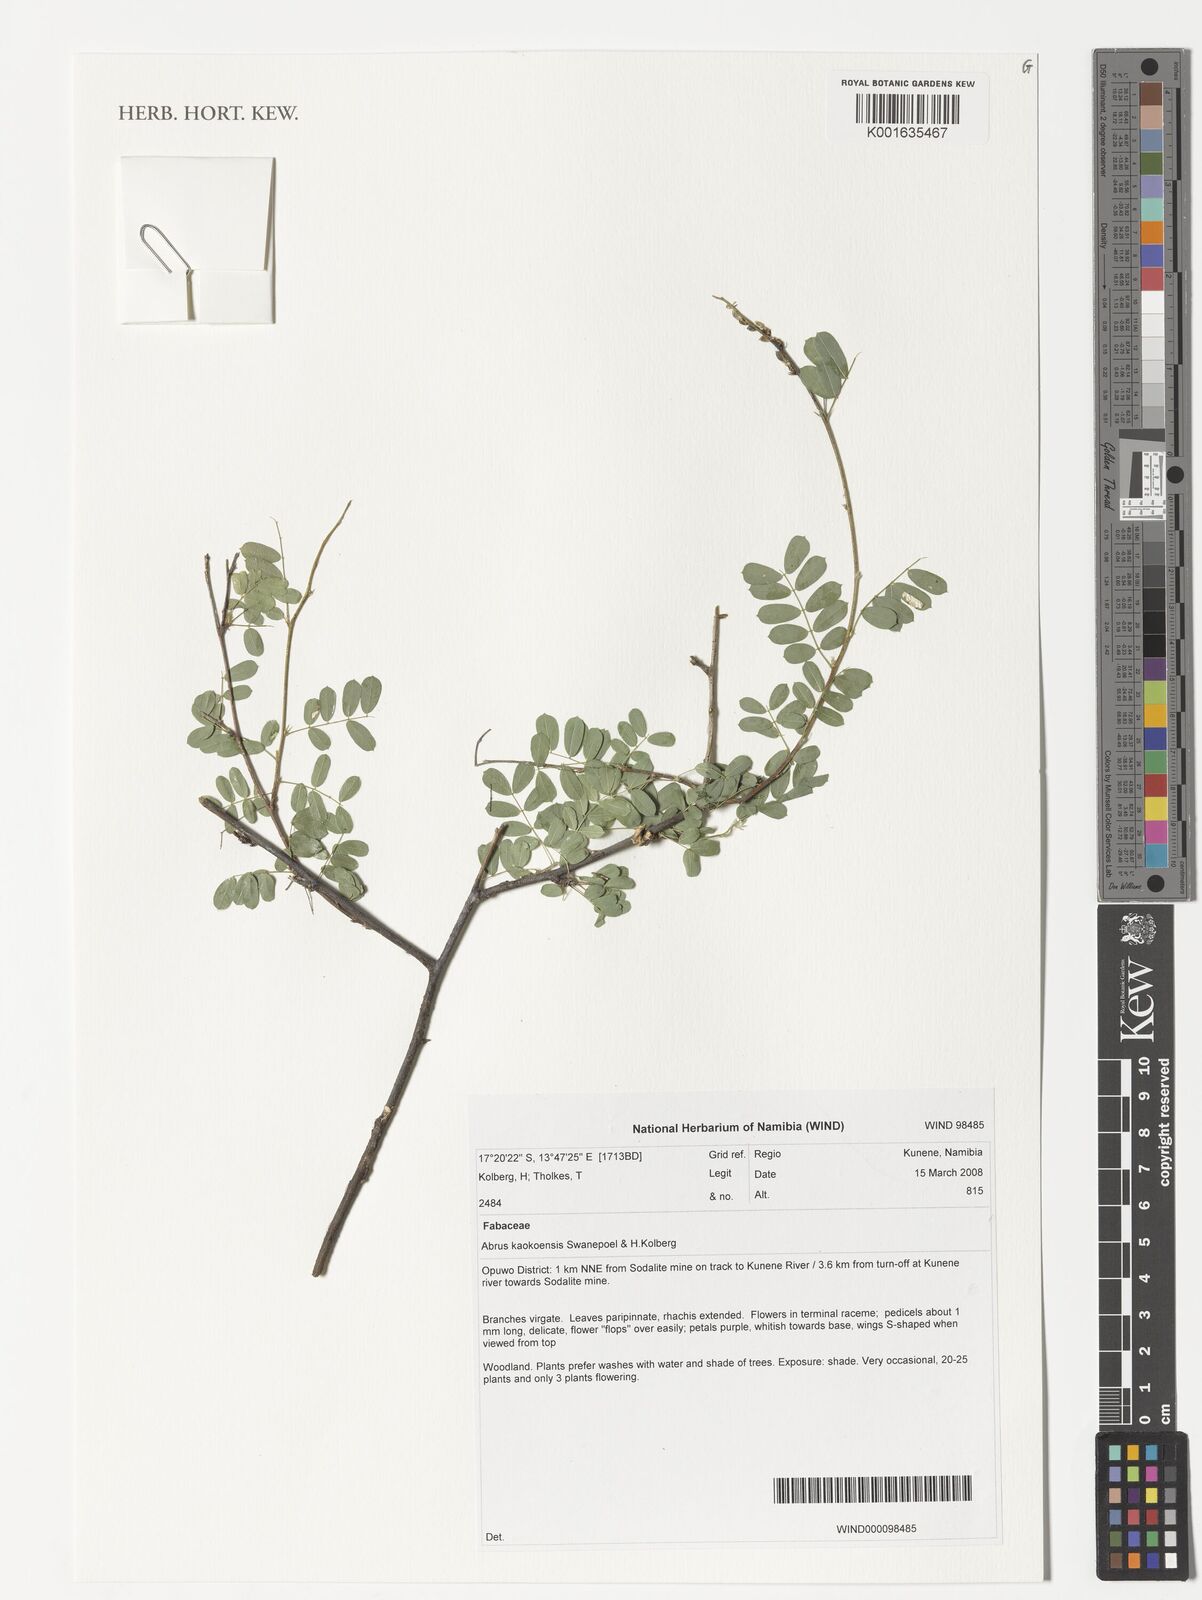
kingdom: Plantae
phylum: Tracheophyta
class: Magnoliopsida
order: Fabales
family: Fabaceae
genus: Abrus
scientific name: Abrus kaokoensis
